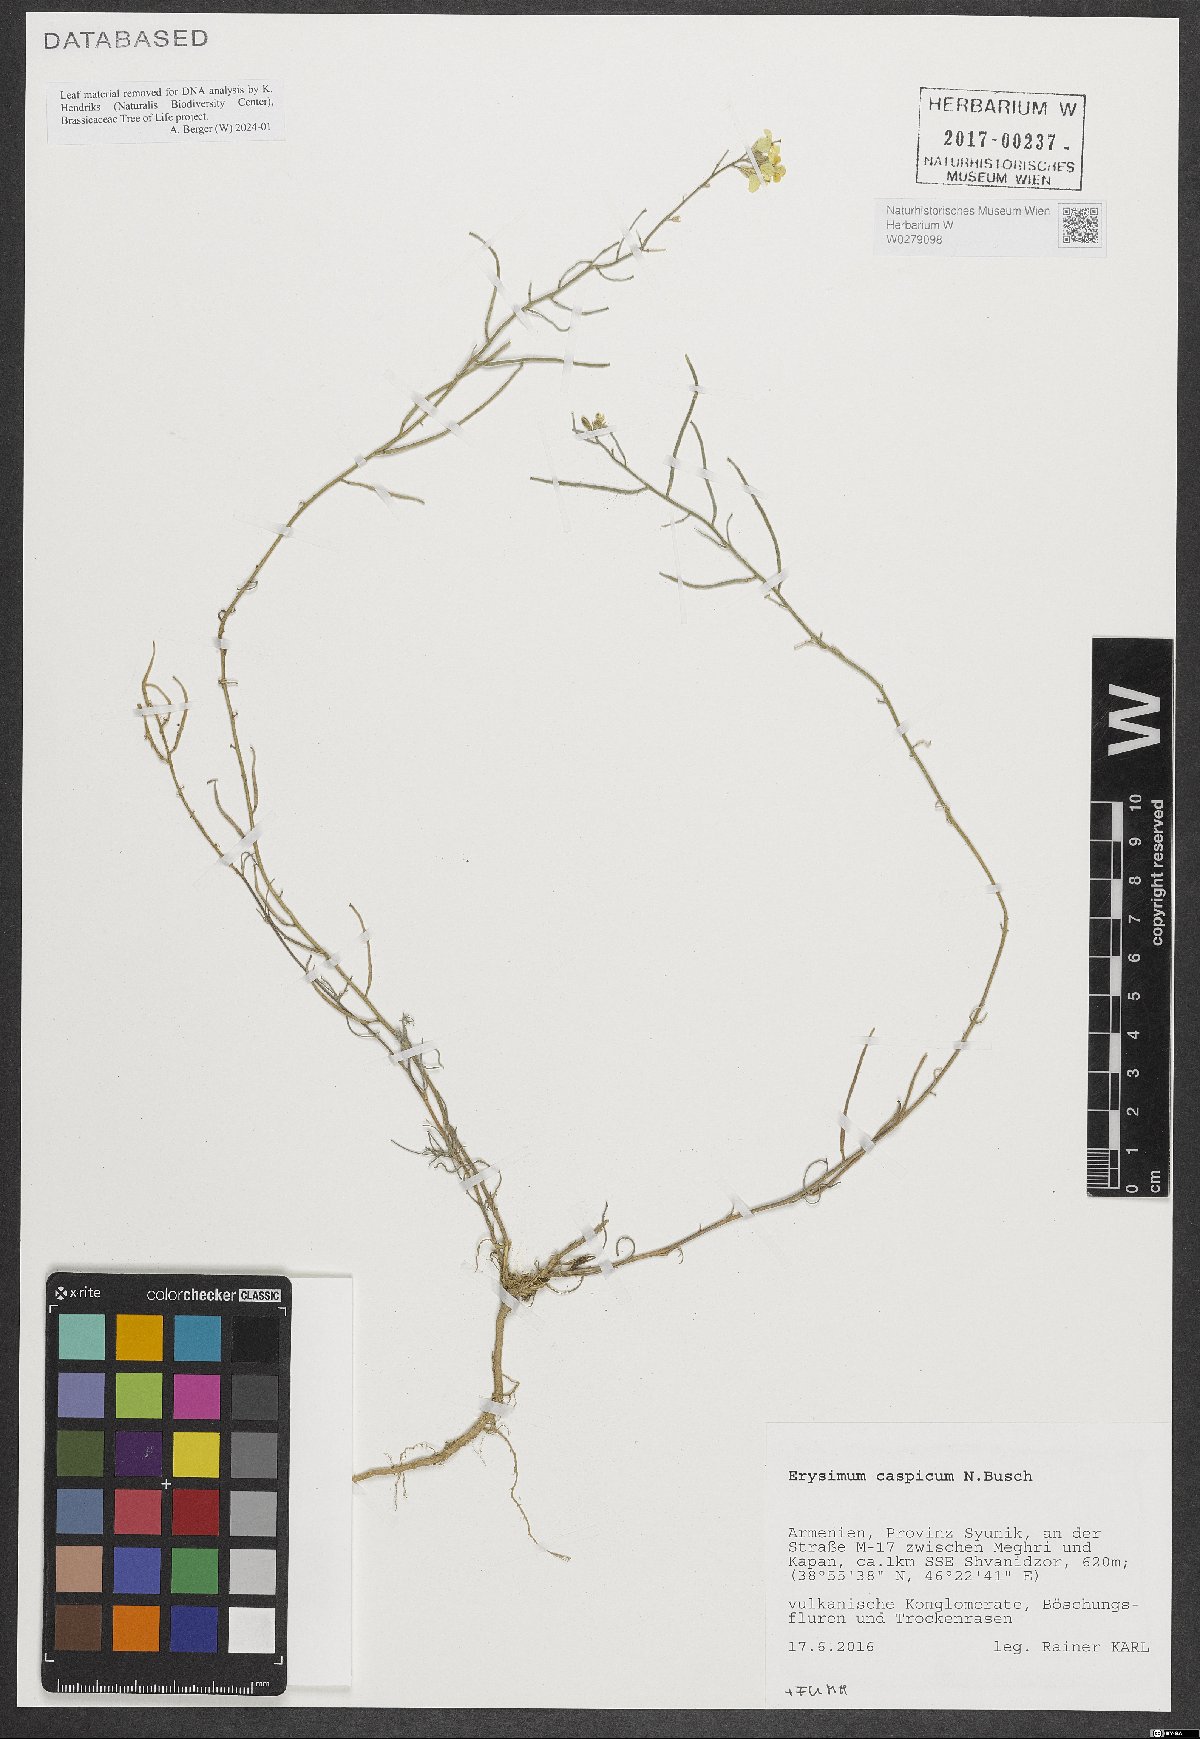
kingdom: Plantae
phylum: Tracheophyta
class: Magnoliopsida
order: Brassicales
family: Brassicaceae
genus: Erysimum
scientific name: Erysimum caspicum
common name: Caspian treacle mustard
